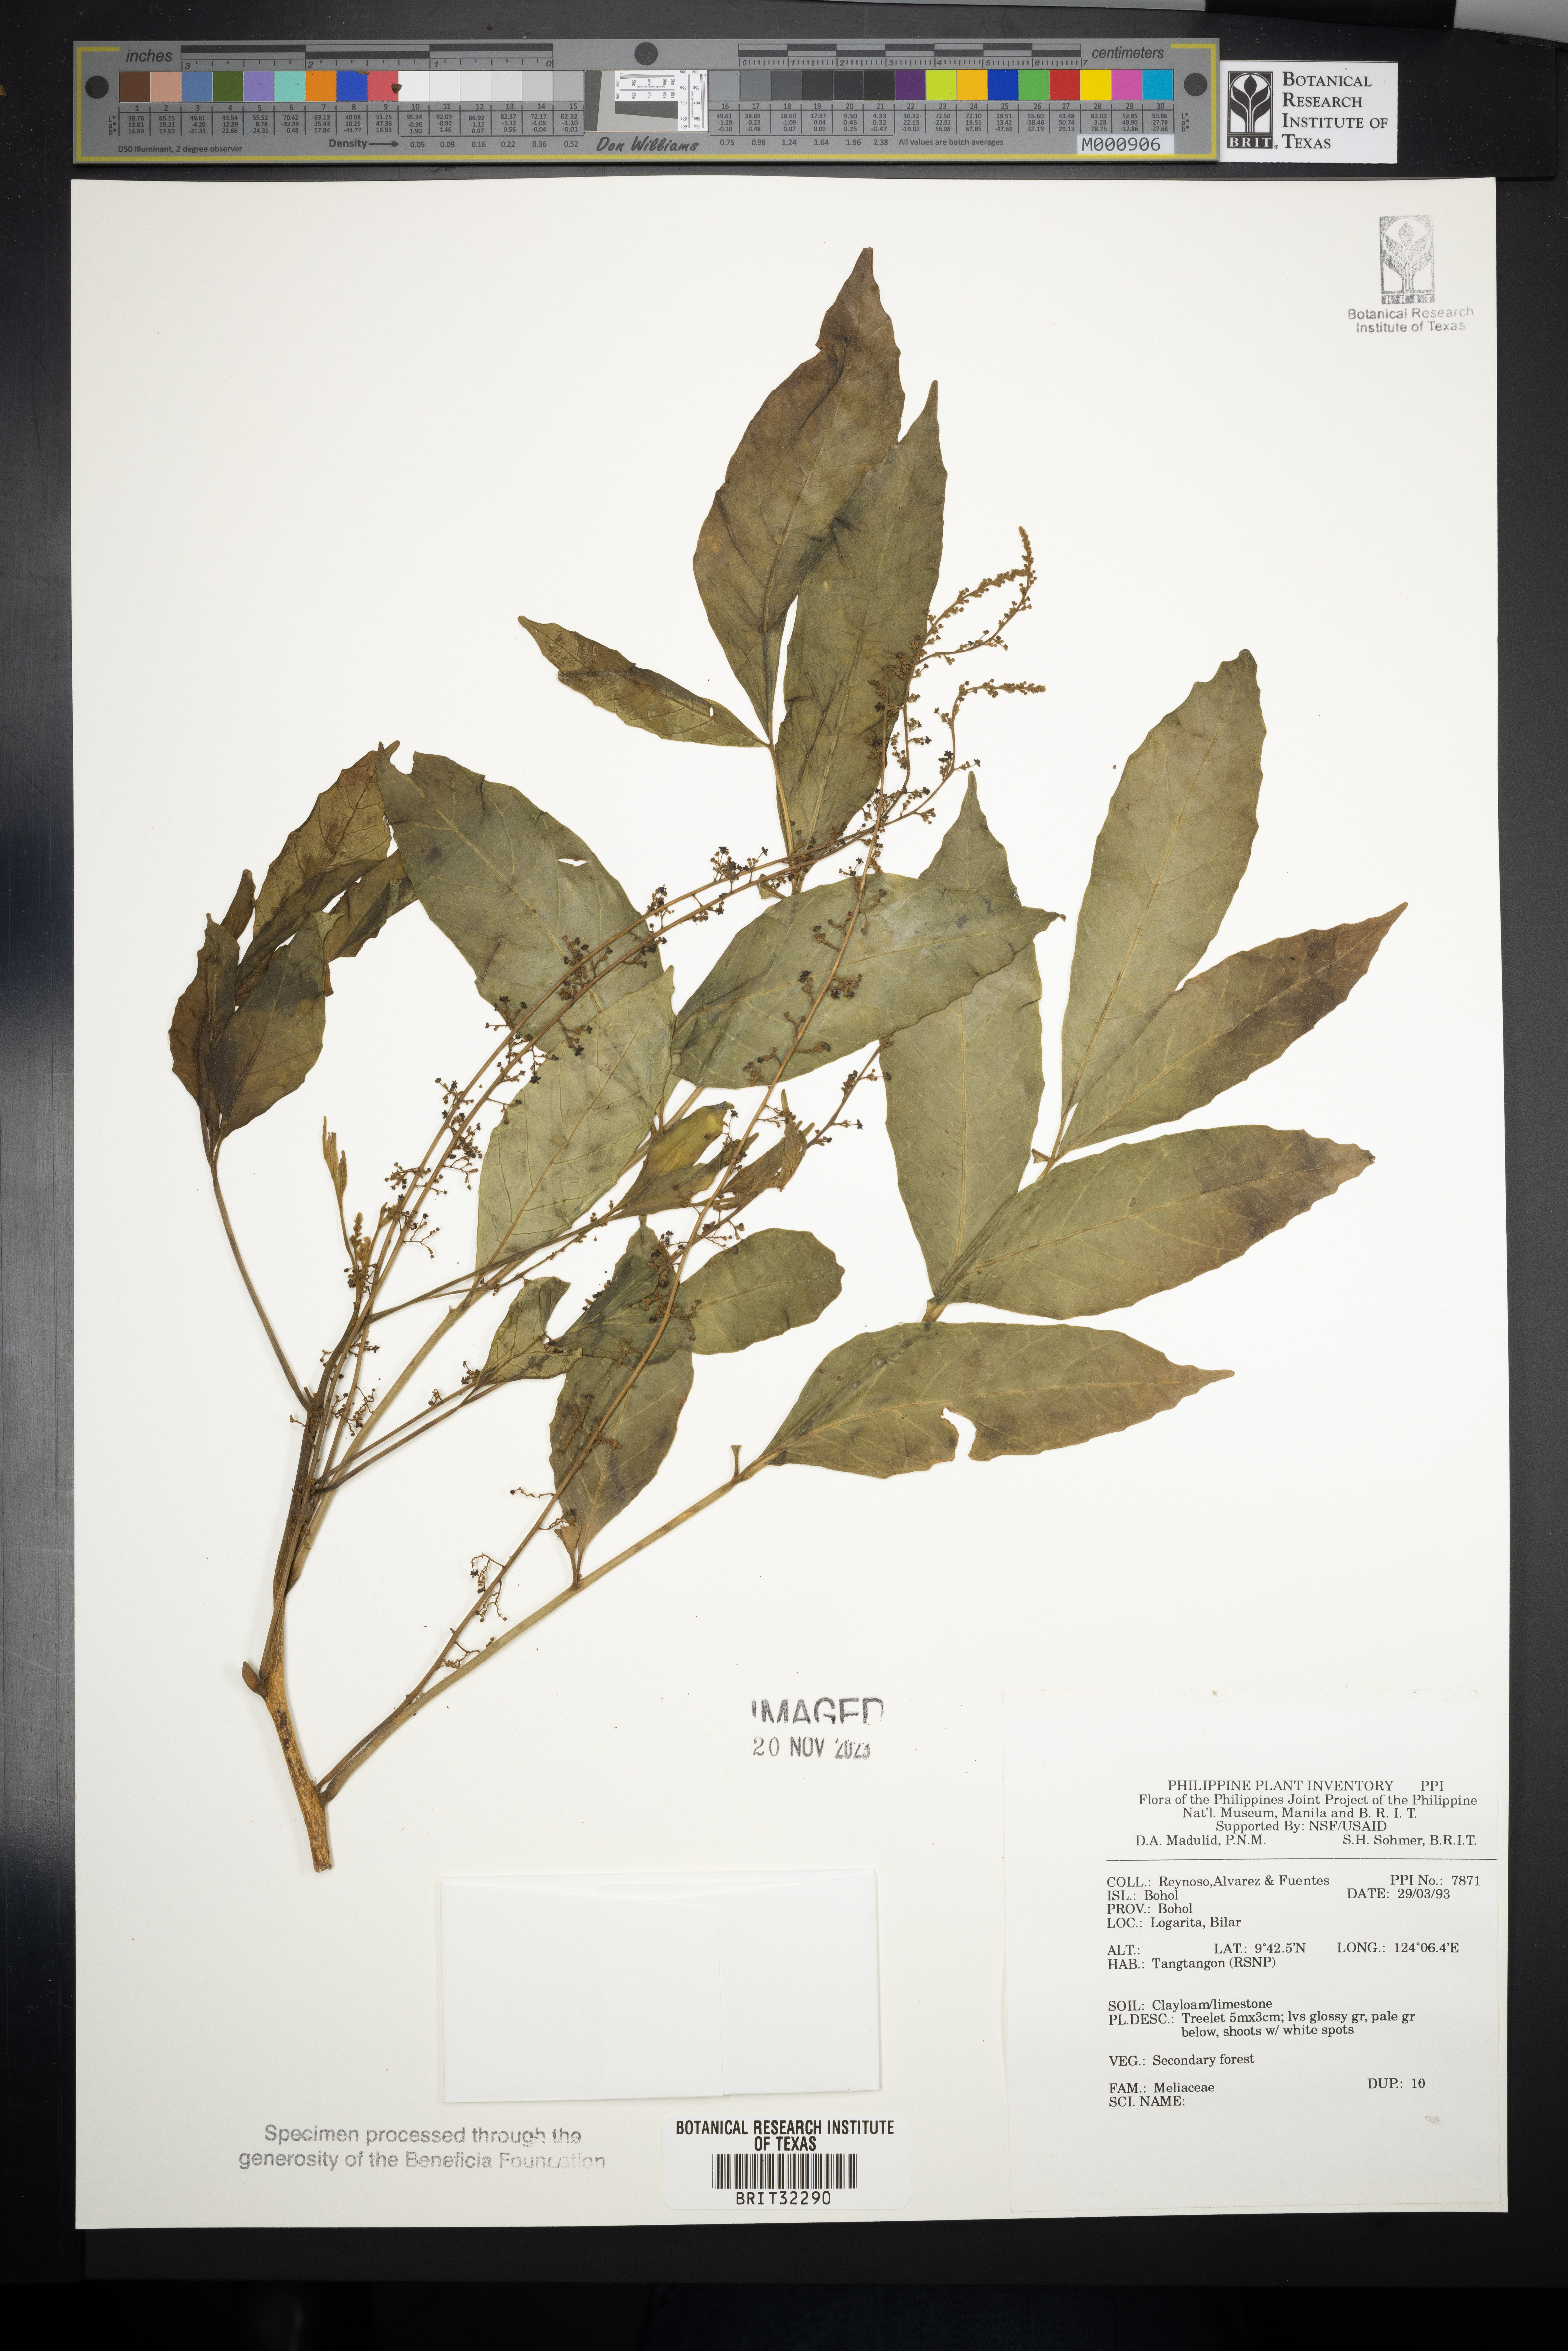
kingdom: Plantae
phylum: Tracheophyta
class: Magnoliopsida
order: Sapindales
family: Meliaceae
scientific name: Meliaceae
